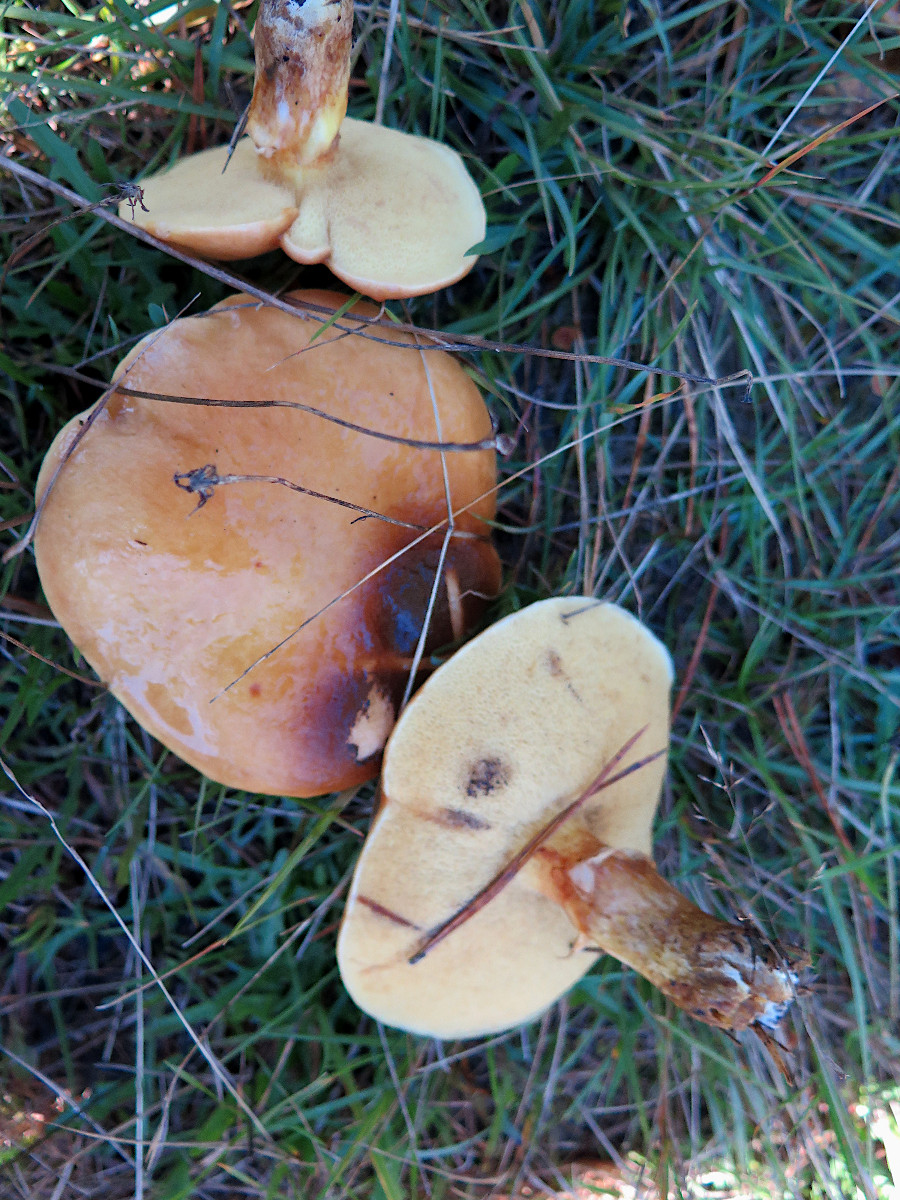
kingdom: Fungi
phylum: Basidiomycota
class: Agaricomycetes
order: Boletales
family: Suillaceae
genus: Suillus
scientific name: Suillus grevillei
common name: lærke-slimrørhat
